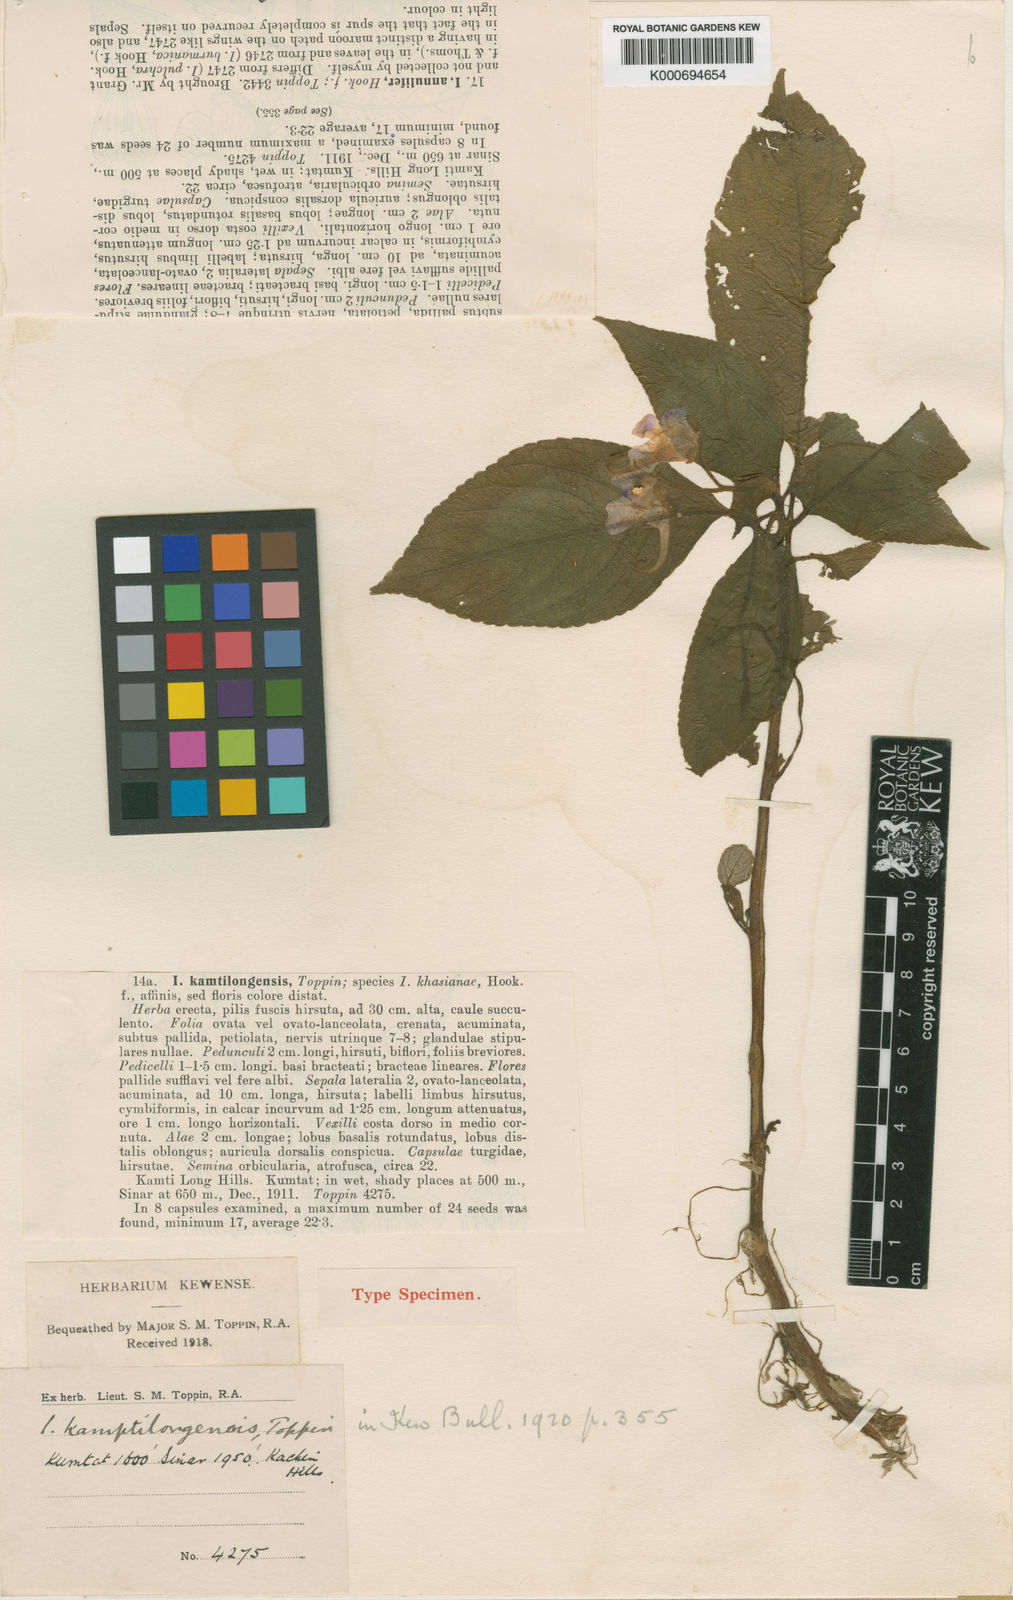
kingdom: Plantae
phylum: Tracheophyta
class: Magnoliopsida
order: Ericales
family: Balsaminaceae
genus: Impatiens
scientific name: Impatiens khasiana
